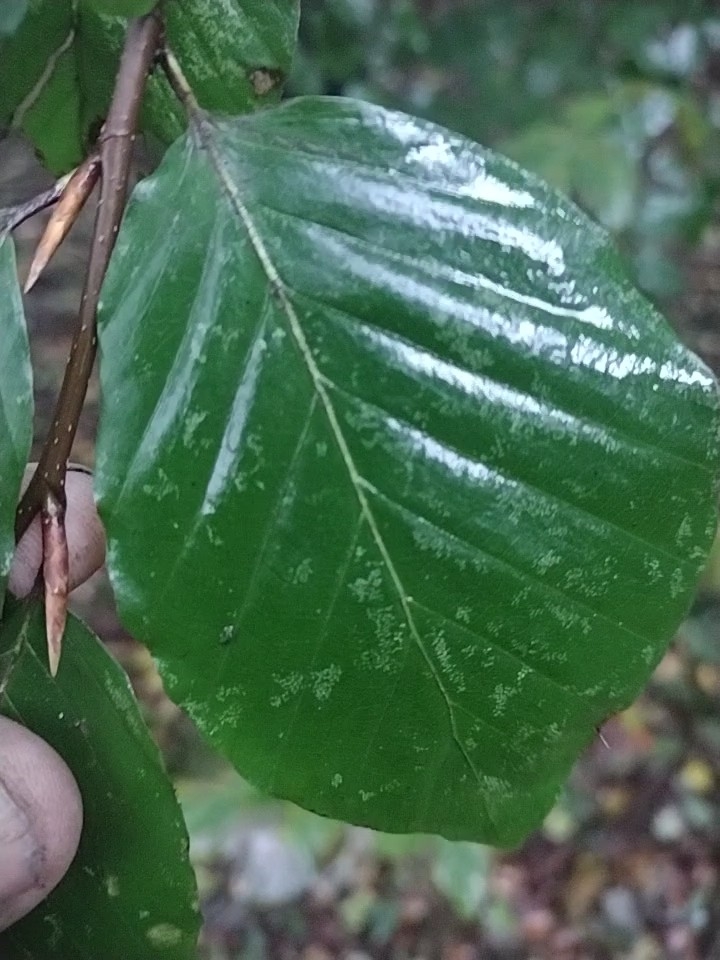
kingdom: Plantae
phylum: Tracheophyta
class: Magnoliopsida
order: Fagales
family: Fagaceae
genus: Fagus
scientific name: Fagus sylvatica
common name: Bøg
